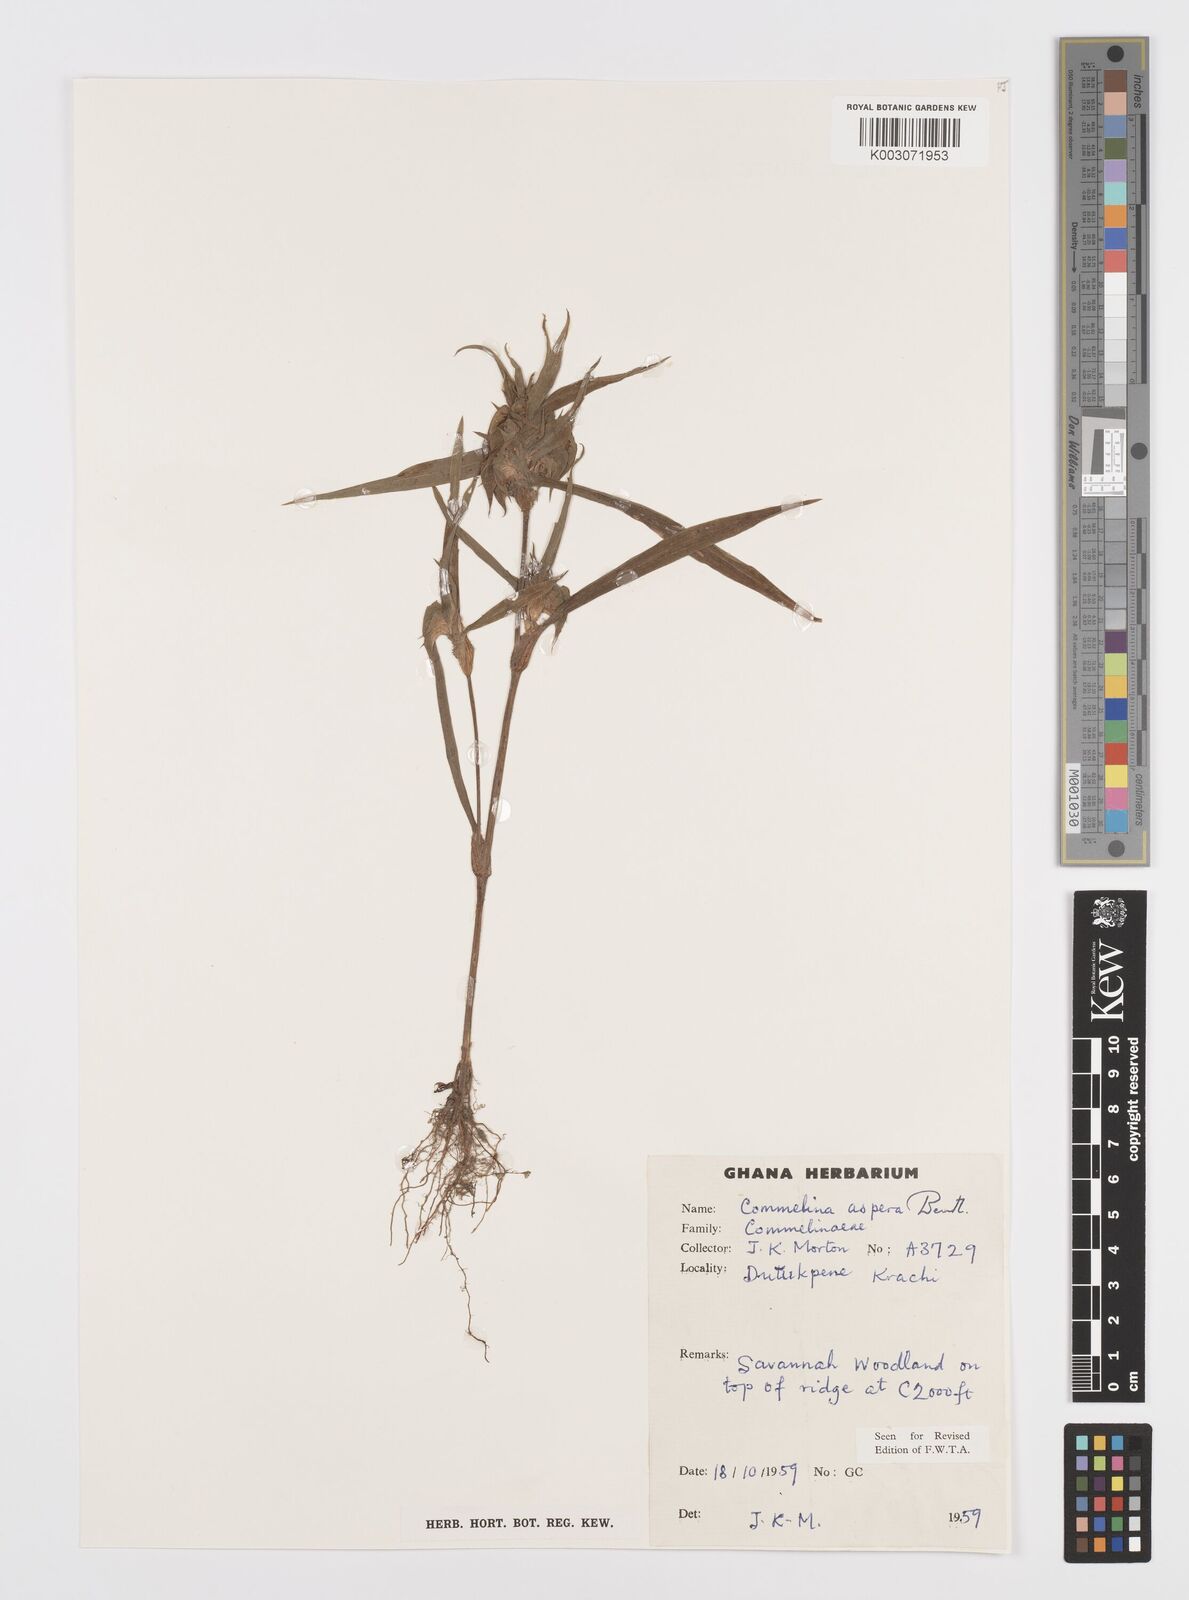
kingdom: Plantae
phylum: Tracheophyta
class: Liliopsida
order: Commelinales
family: Commelinaceae
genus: Commelina
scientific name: Commelina aspera
